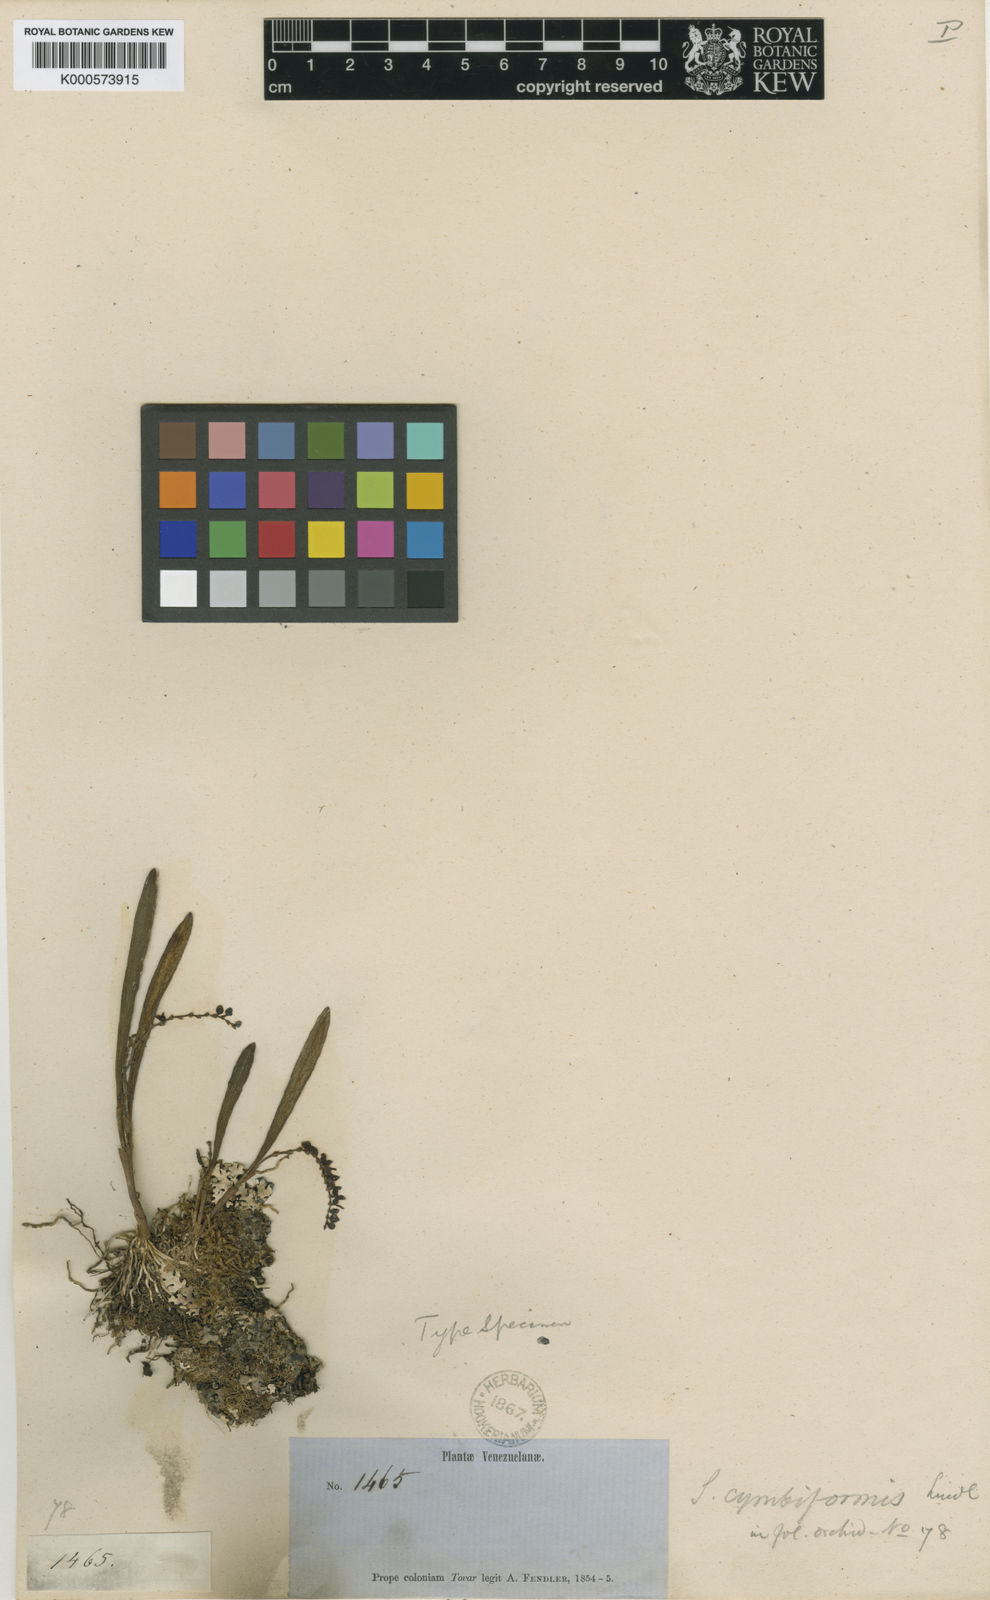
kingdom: Plantae
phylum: Tracheophyta
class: Liliopsida
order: Asparagales
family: Orchidaceae
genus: Stelis
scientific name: Stelis humilis
